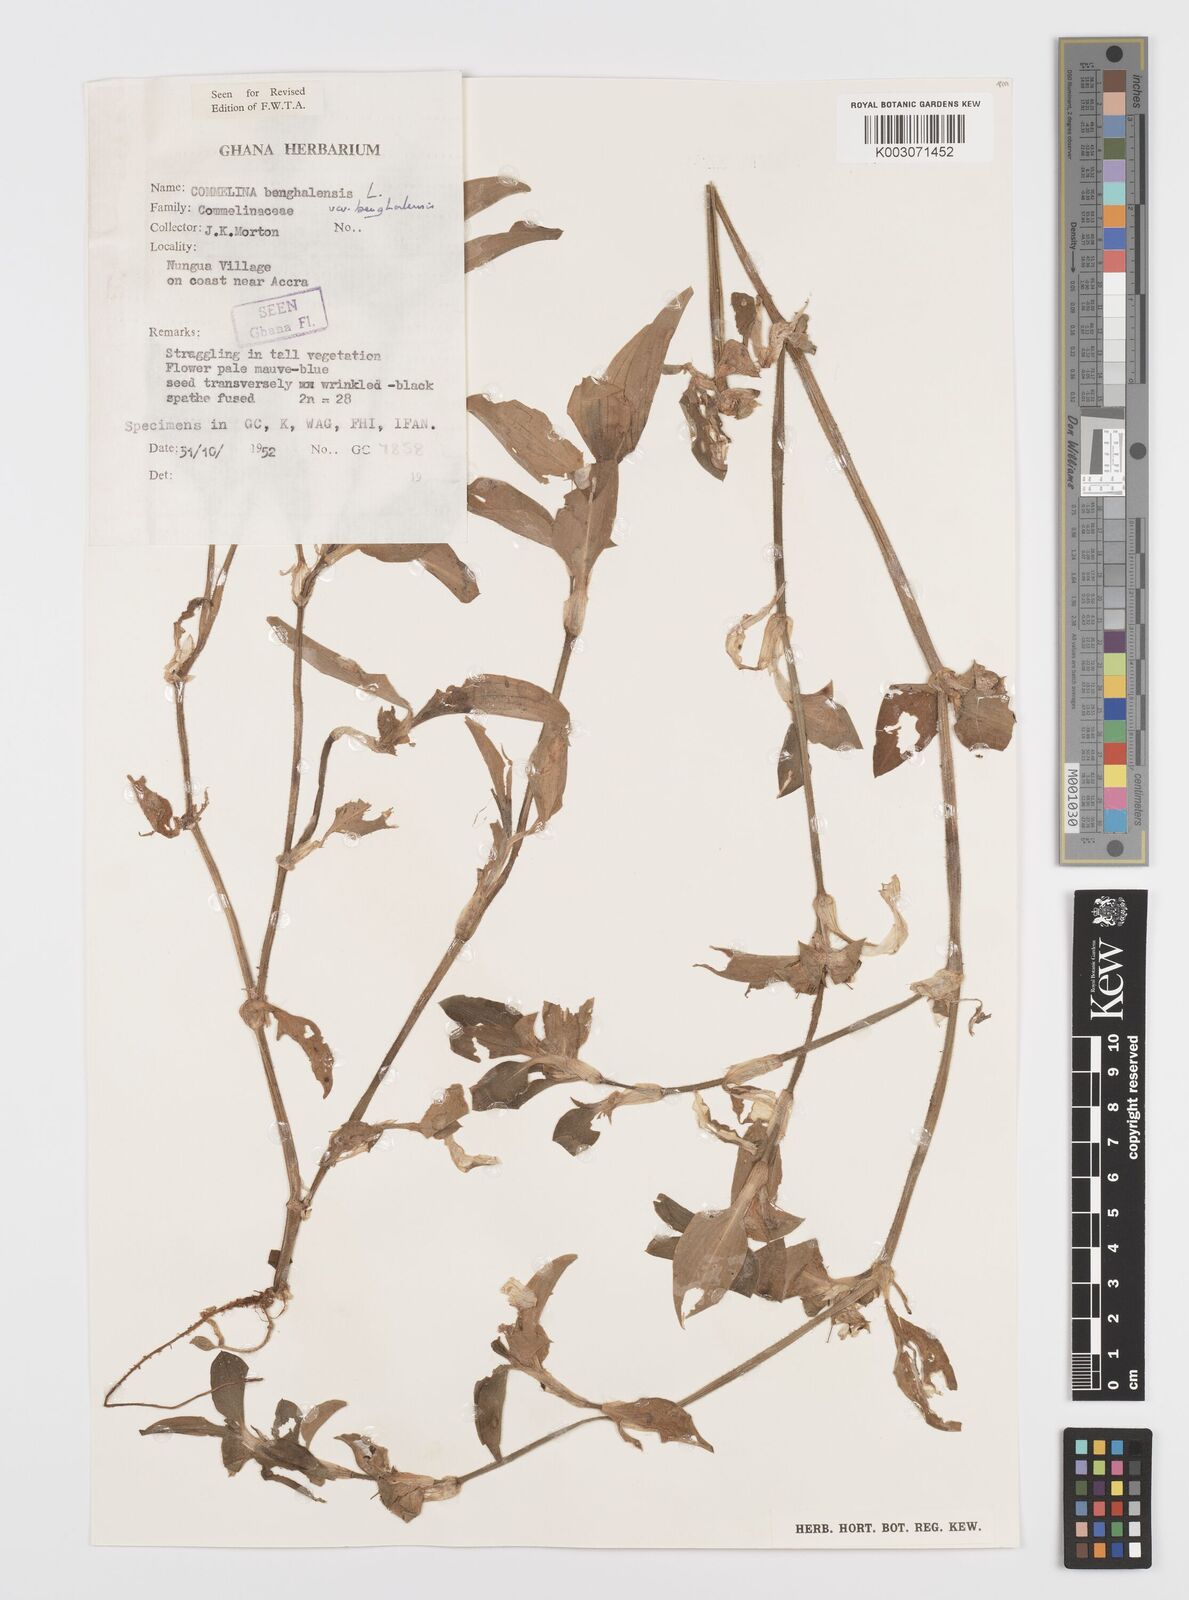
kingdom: Plantae
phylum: Tracheophyta
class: Liliopsida
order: Commelinales
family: Commelinaceae
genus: Commelina
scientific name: Commelina benghalensis
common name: Jio
